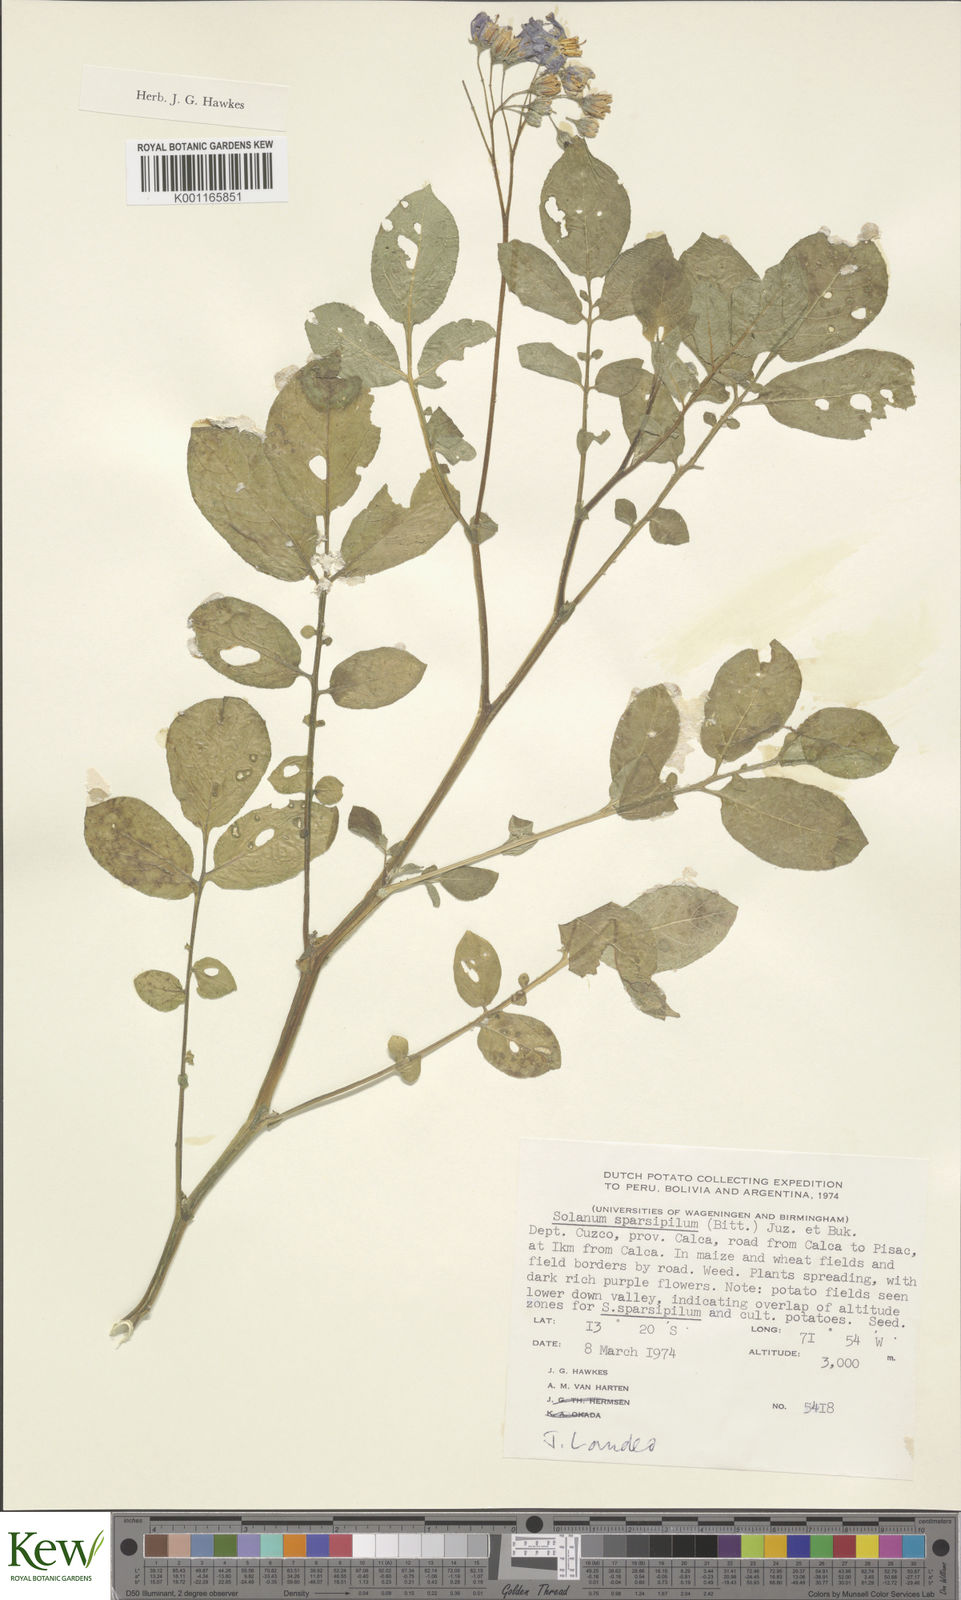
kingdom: Plantae
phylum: Tracheophyta
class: Magnoliopsida
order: Solanales
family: Solanaceae
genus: Solanum
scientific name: Solanum brevicaule
